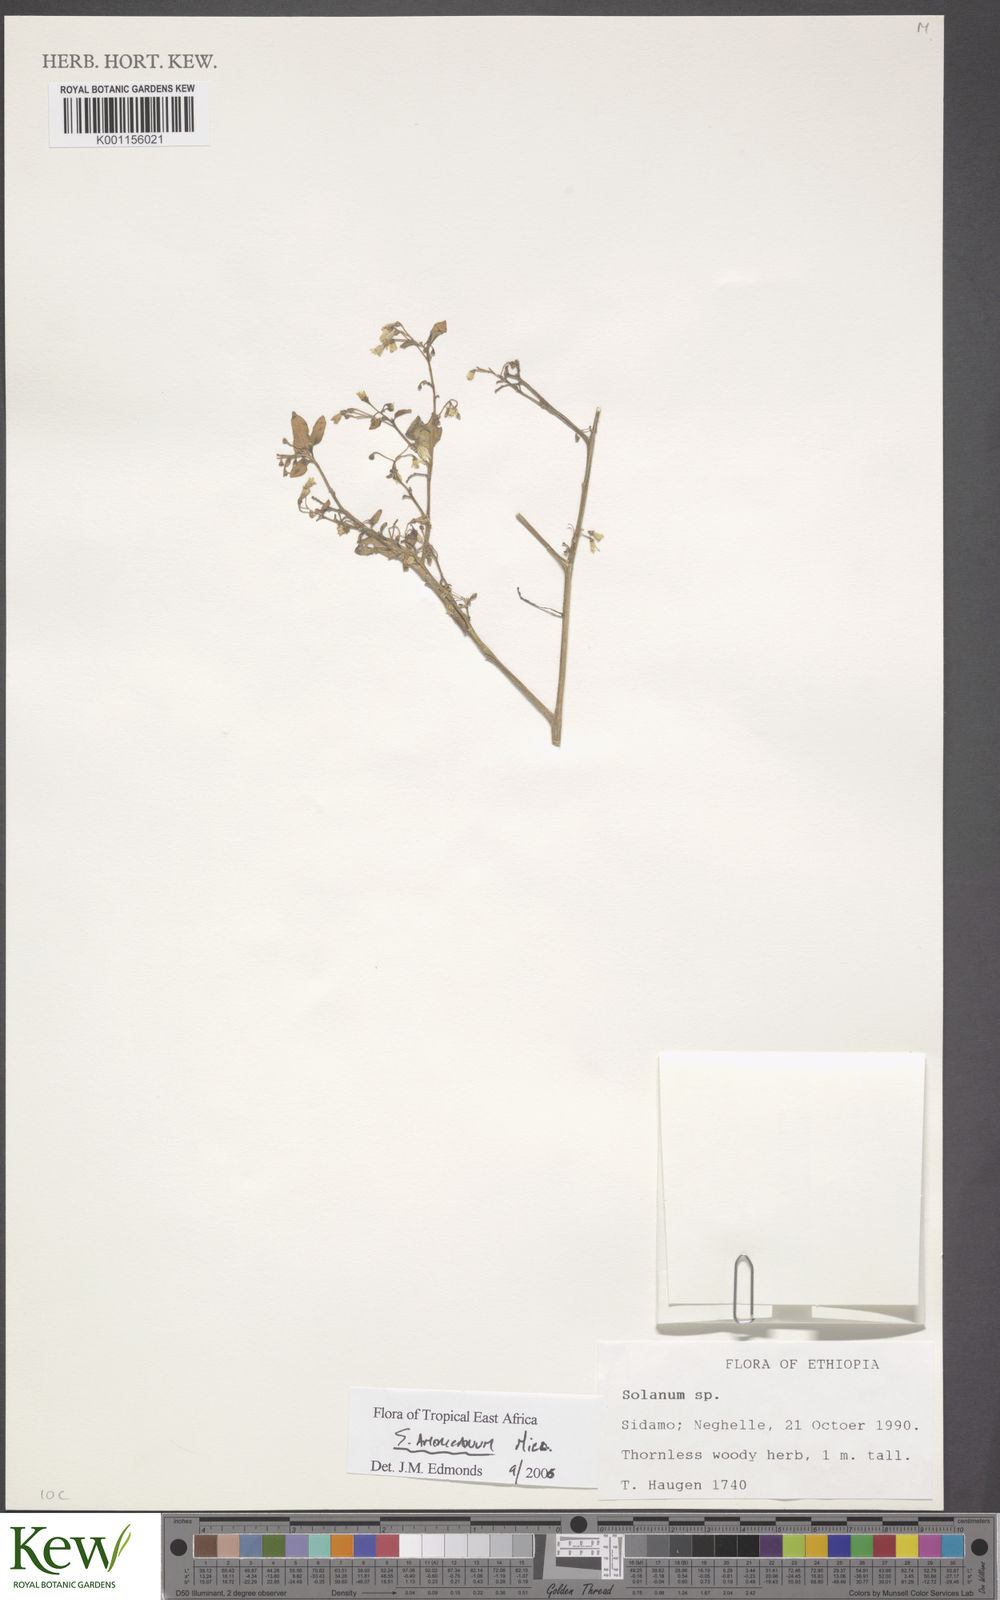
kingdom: Plantae
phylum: Tracheophyta
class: Magnoliopsida
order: Solanales
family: Solanaceae
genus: Solanum
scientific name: Solanum tarderemotum
